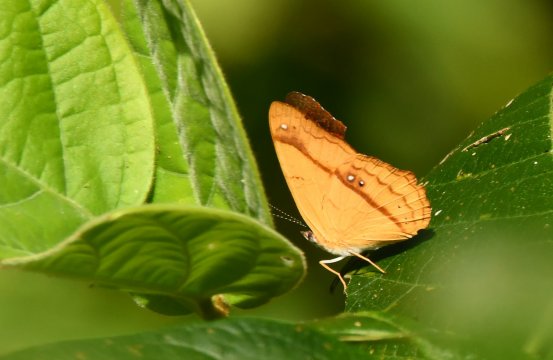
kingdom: Animalia
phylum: Arthropoda
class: Insecta
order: Lepidoptera
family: Nymphalidae
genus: Nica
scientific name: Nica flavilla
